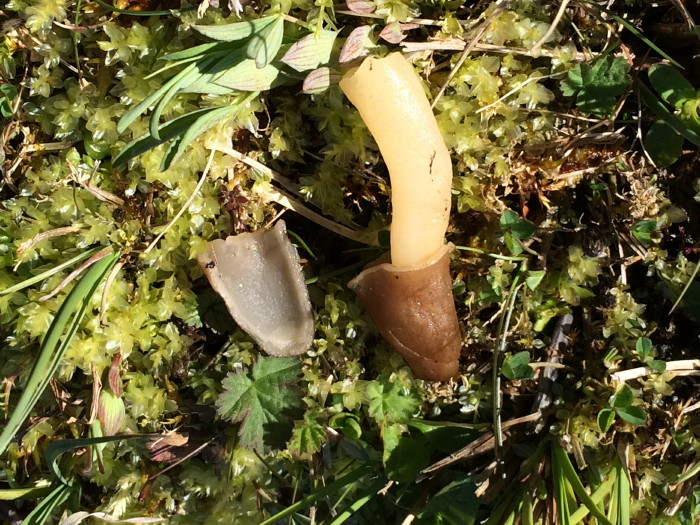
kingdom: Fungi
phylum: Ascomycota
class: Pezizomycetes
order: Pezizales
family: Morchellaceae
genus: Verpa
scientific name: Verpa conica
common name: glat klokkemorkel
